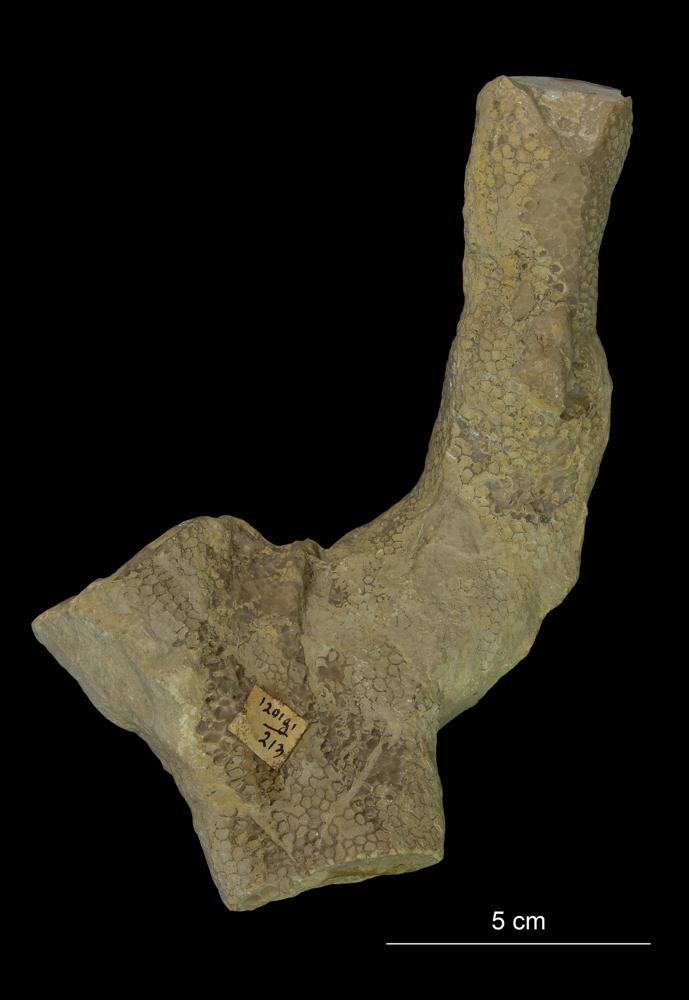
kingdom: Animalia
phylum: Cnidaria
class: Anthozoa
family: Favositidae
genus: Favosites
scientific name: Favosites
